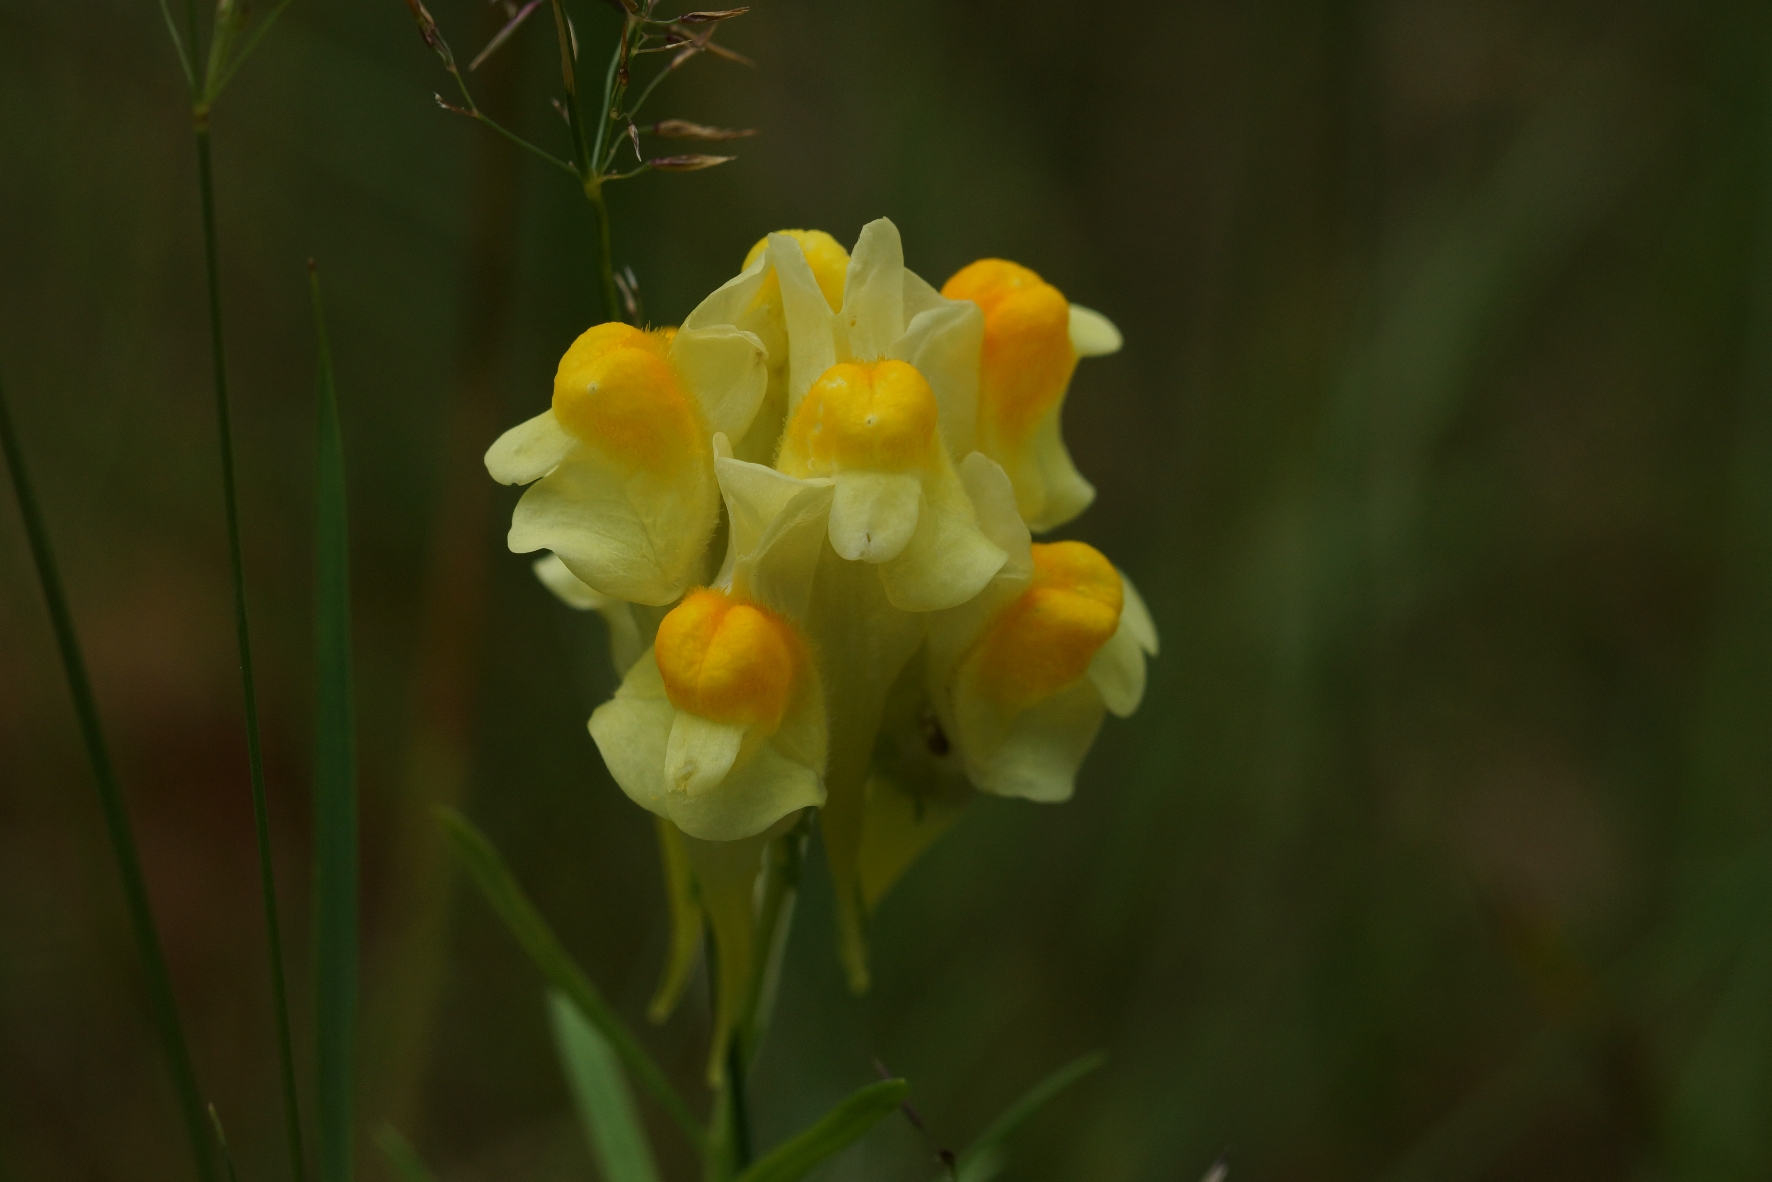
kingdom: Plantae
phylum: Tracheophyta
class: Magnoliopsida
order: Lamiales
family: Plantaginaceae
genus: Linaria
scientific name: Linaria vulgaris
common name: Almindelig torskemund
